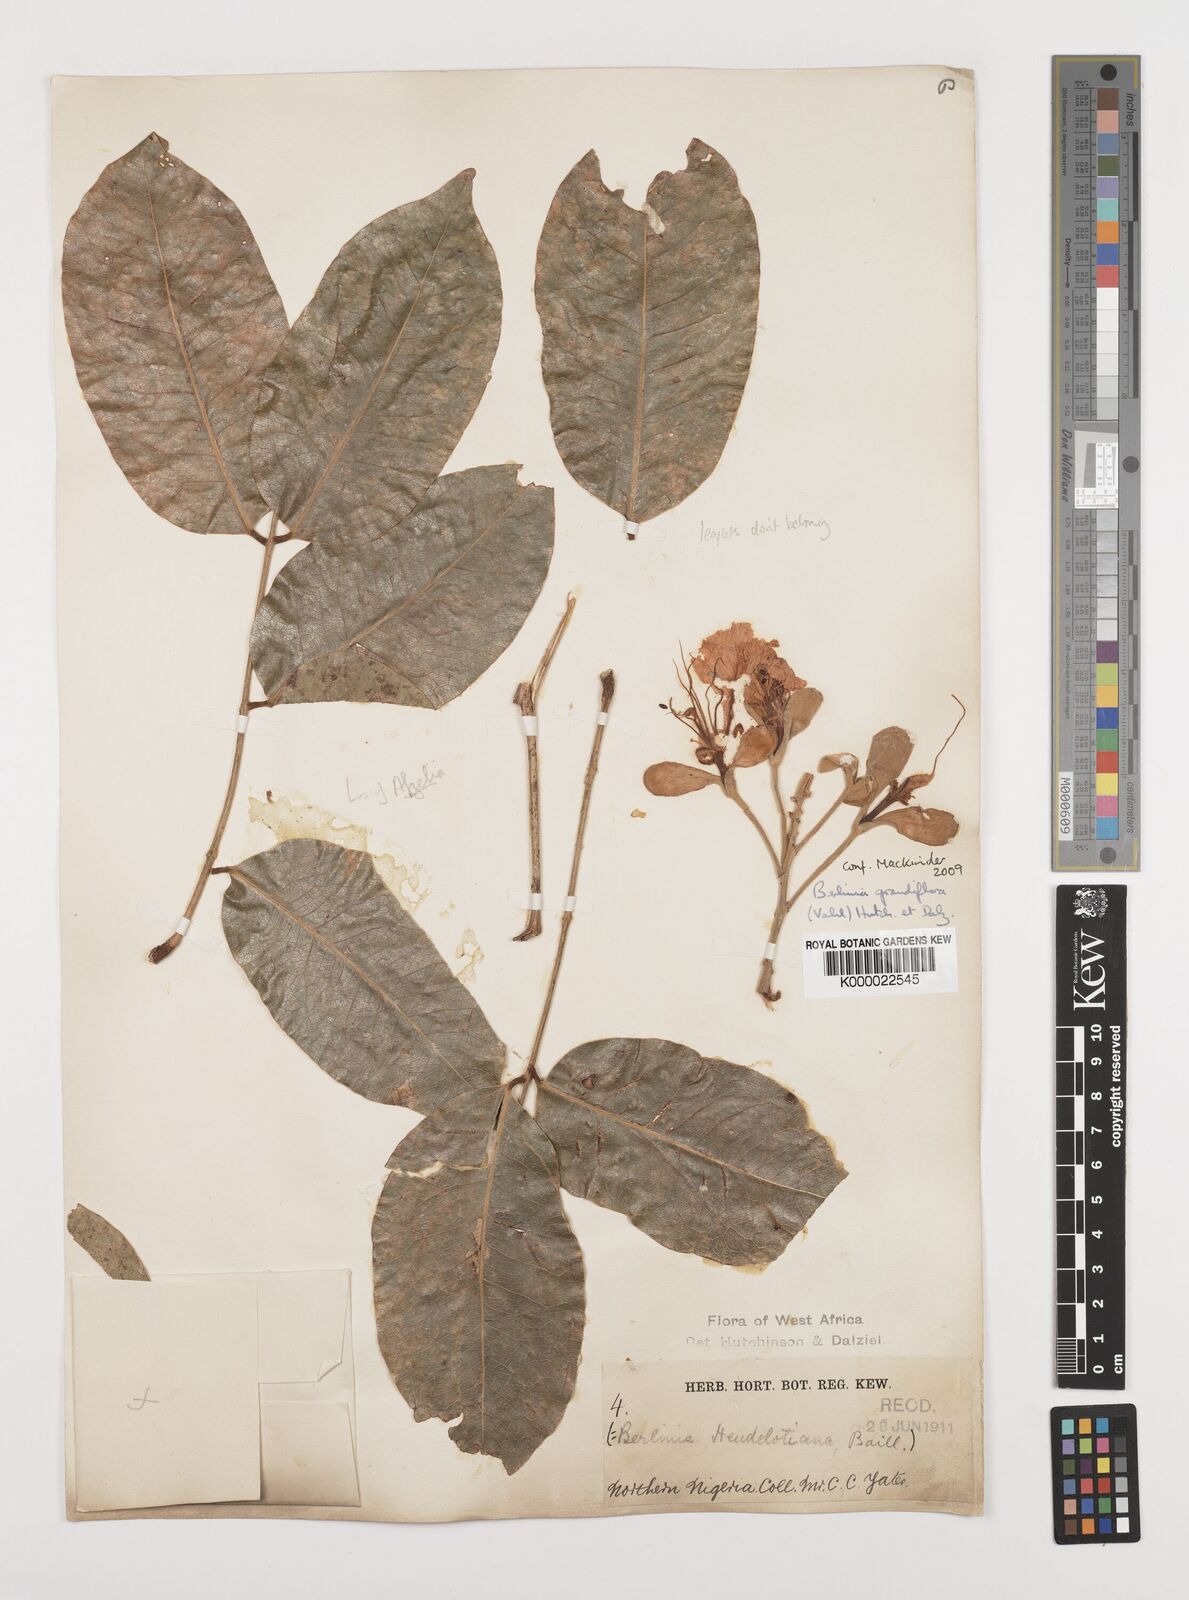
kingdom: Plantae
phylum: Tracheophyta
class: Magnoliopsida
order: Fabales
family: Fabaceae
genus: Berlinia
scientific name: Berlinia grandiflora
